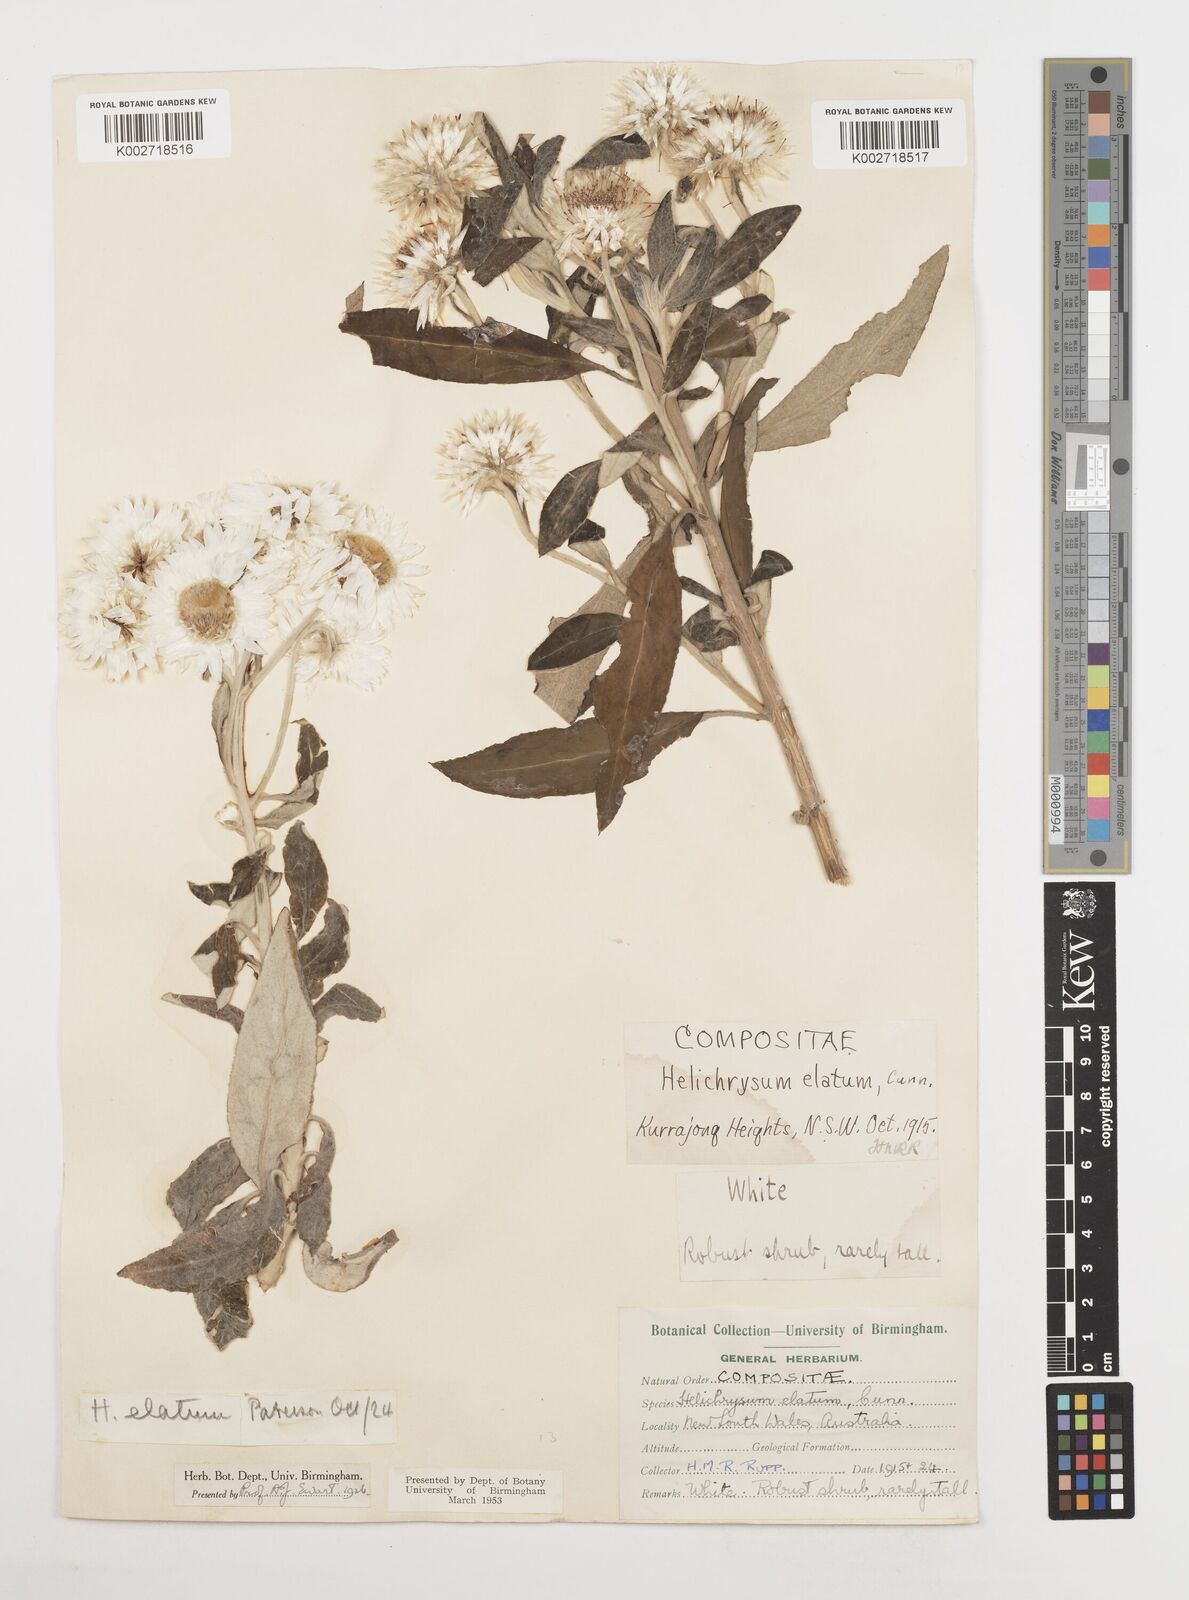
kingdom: Plantae
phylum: Tracheophyta
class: Magnoliopsida
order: Asterales
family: Asteraceae
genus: Leucozoma
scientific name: Leucozoma elatum
